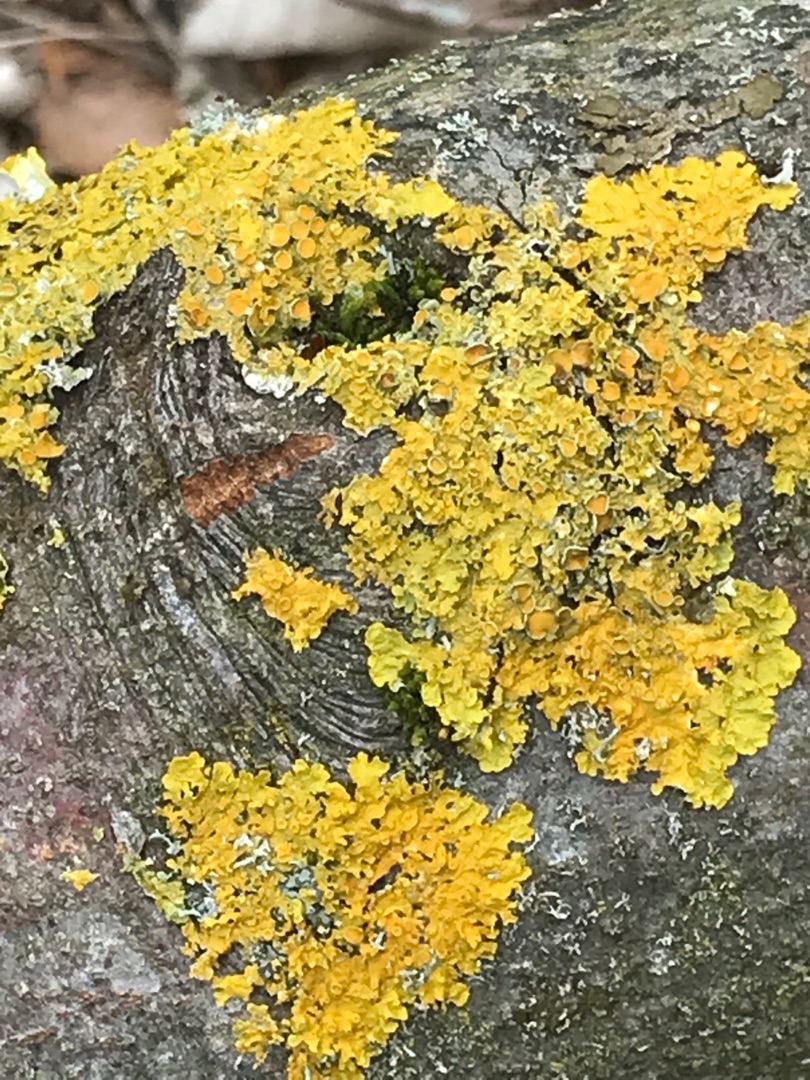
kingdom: Fungi
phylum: Ascomycota
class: Lecanoromycetes
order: Teloschistales
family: Teloschistaceae
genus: Xanthoria
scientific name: Xanthoria parietina
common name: Almindelig væggelav
